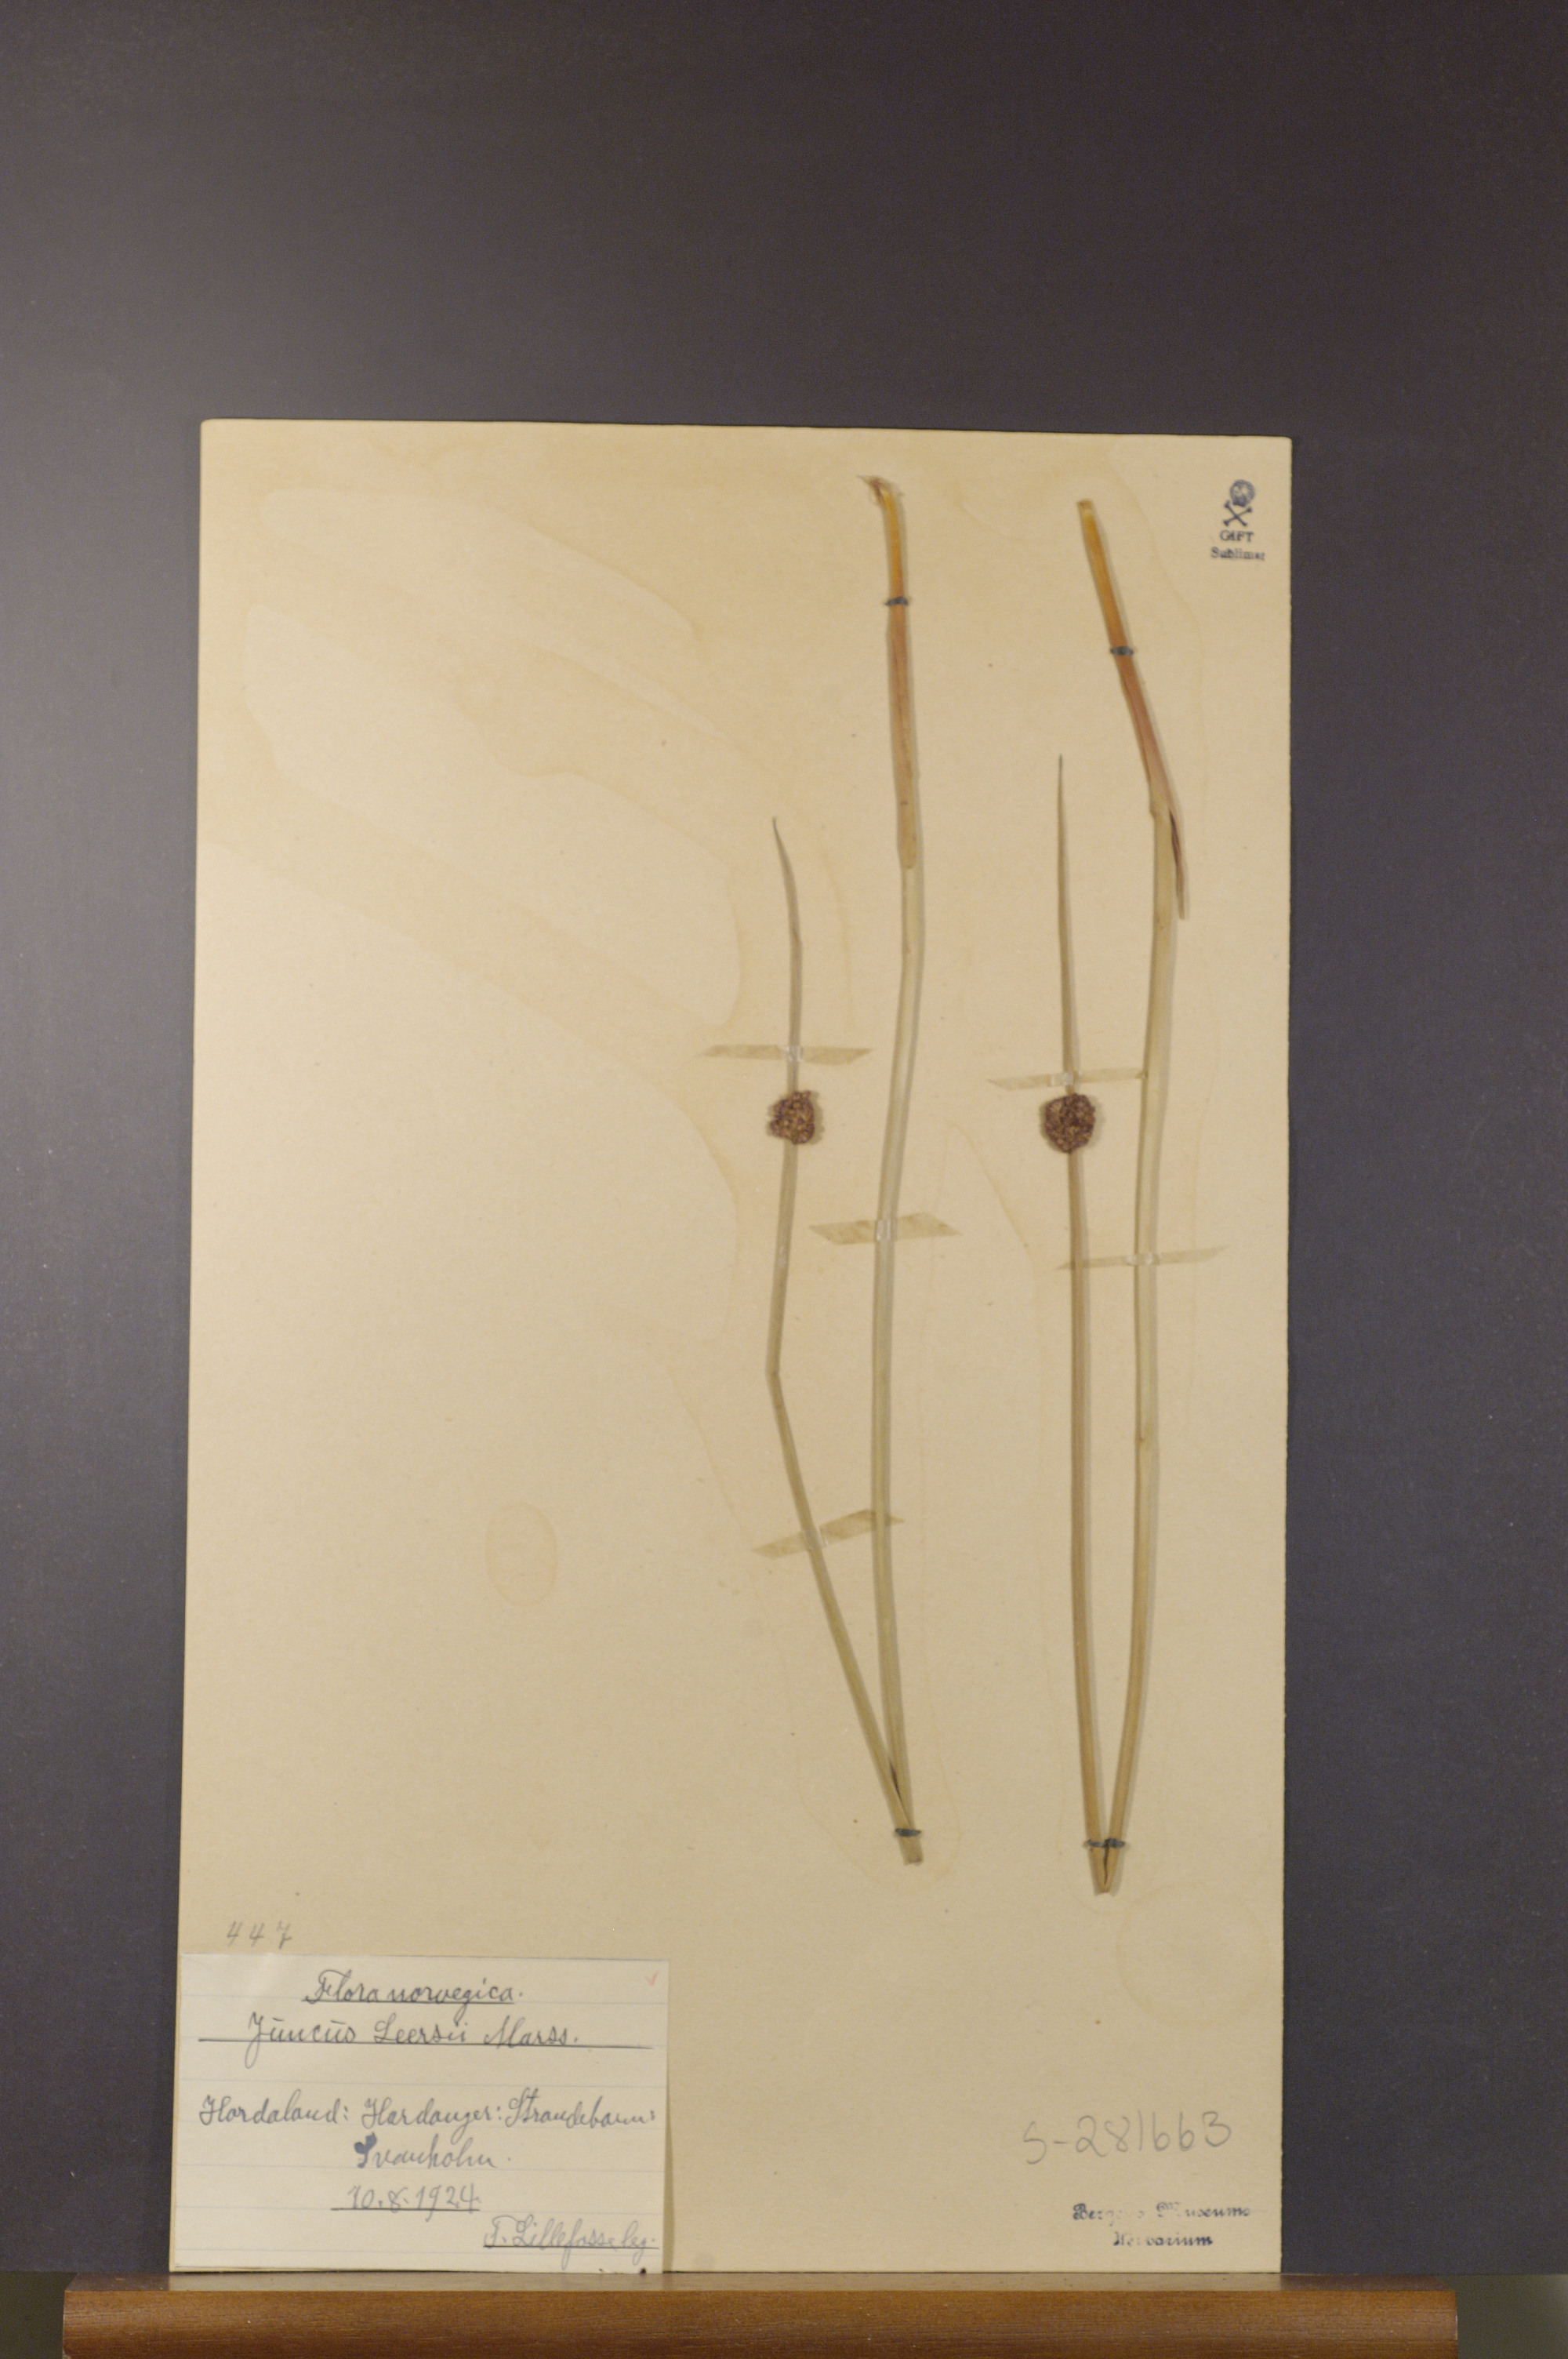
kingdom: Plantae
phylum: Tracheophyta
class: Liliopsida
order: Poales
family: Juncaceae
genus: Juncus
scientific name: Juncus conglomeratus
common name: Compact rush
